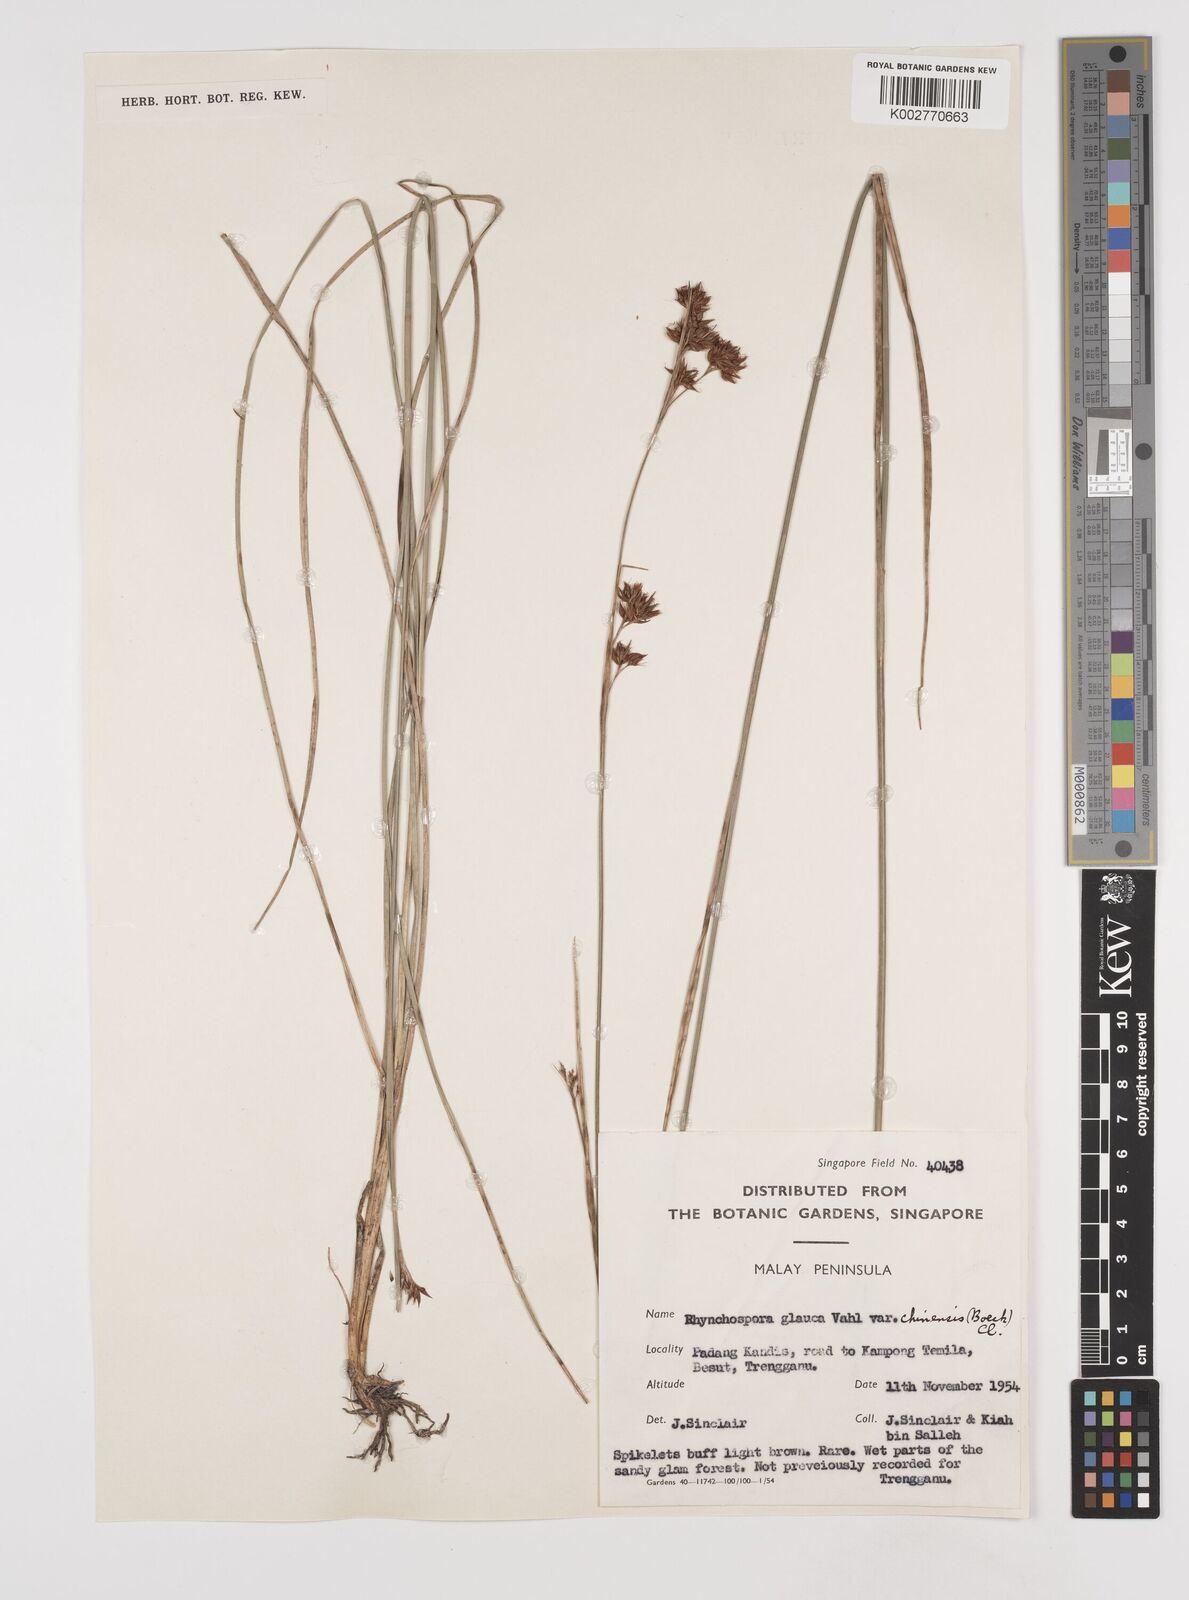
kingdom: Plantae
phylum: Tracheophyta
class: Liliopsida
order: Poales
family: Cyperaceae
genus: Rhynchospora
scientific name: Rhynchospora rugosa
